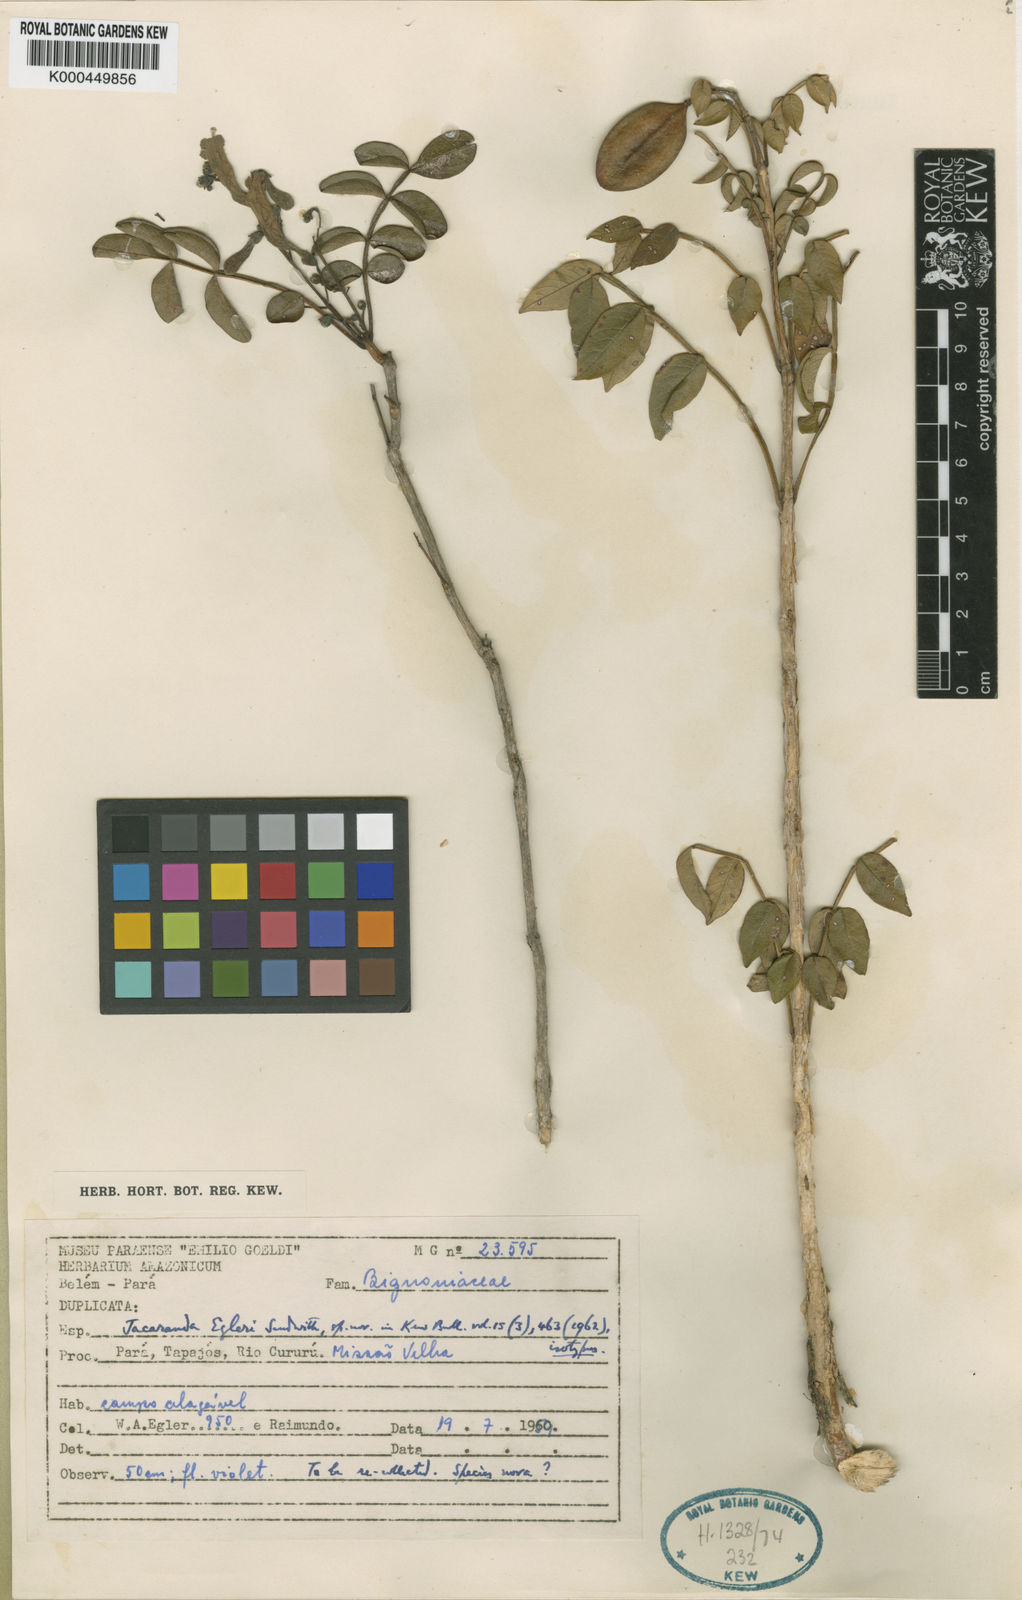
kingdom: Plantae
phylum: Tracheophyta
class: Magnoliopsida
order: Lamiales
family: Bignoniaceae
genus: Jacaranda
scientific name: Jacaranda egleri
